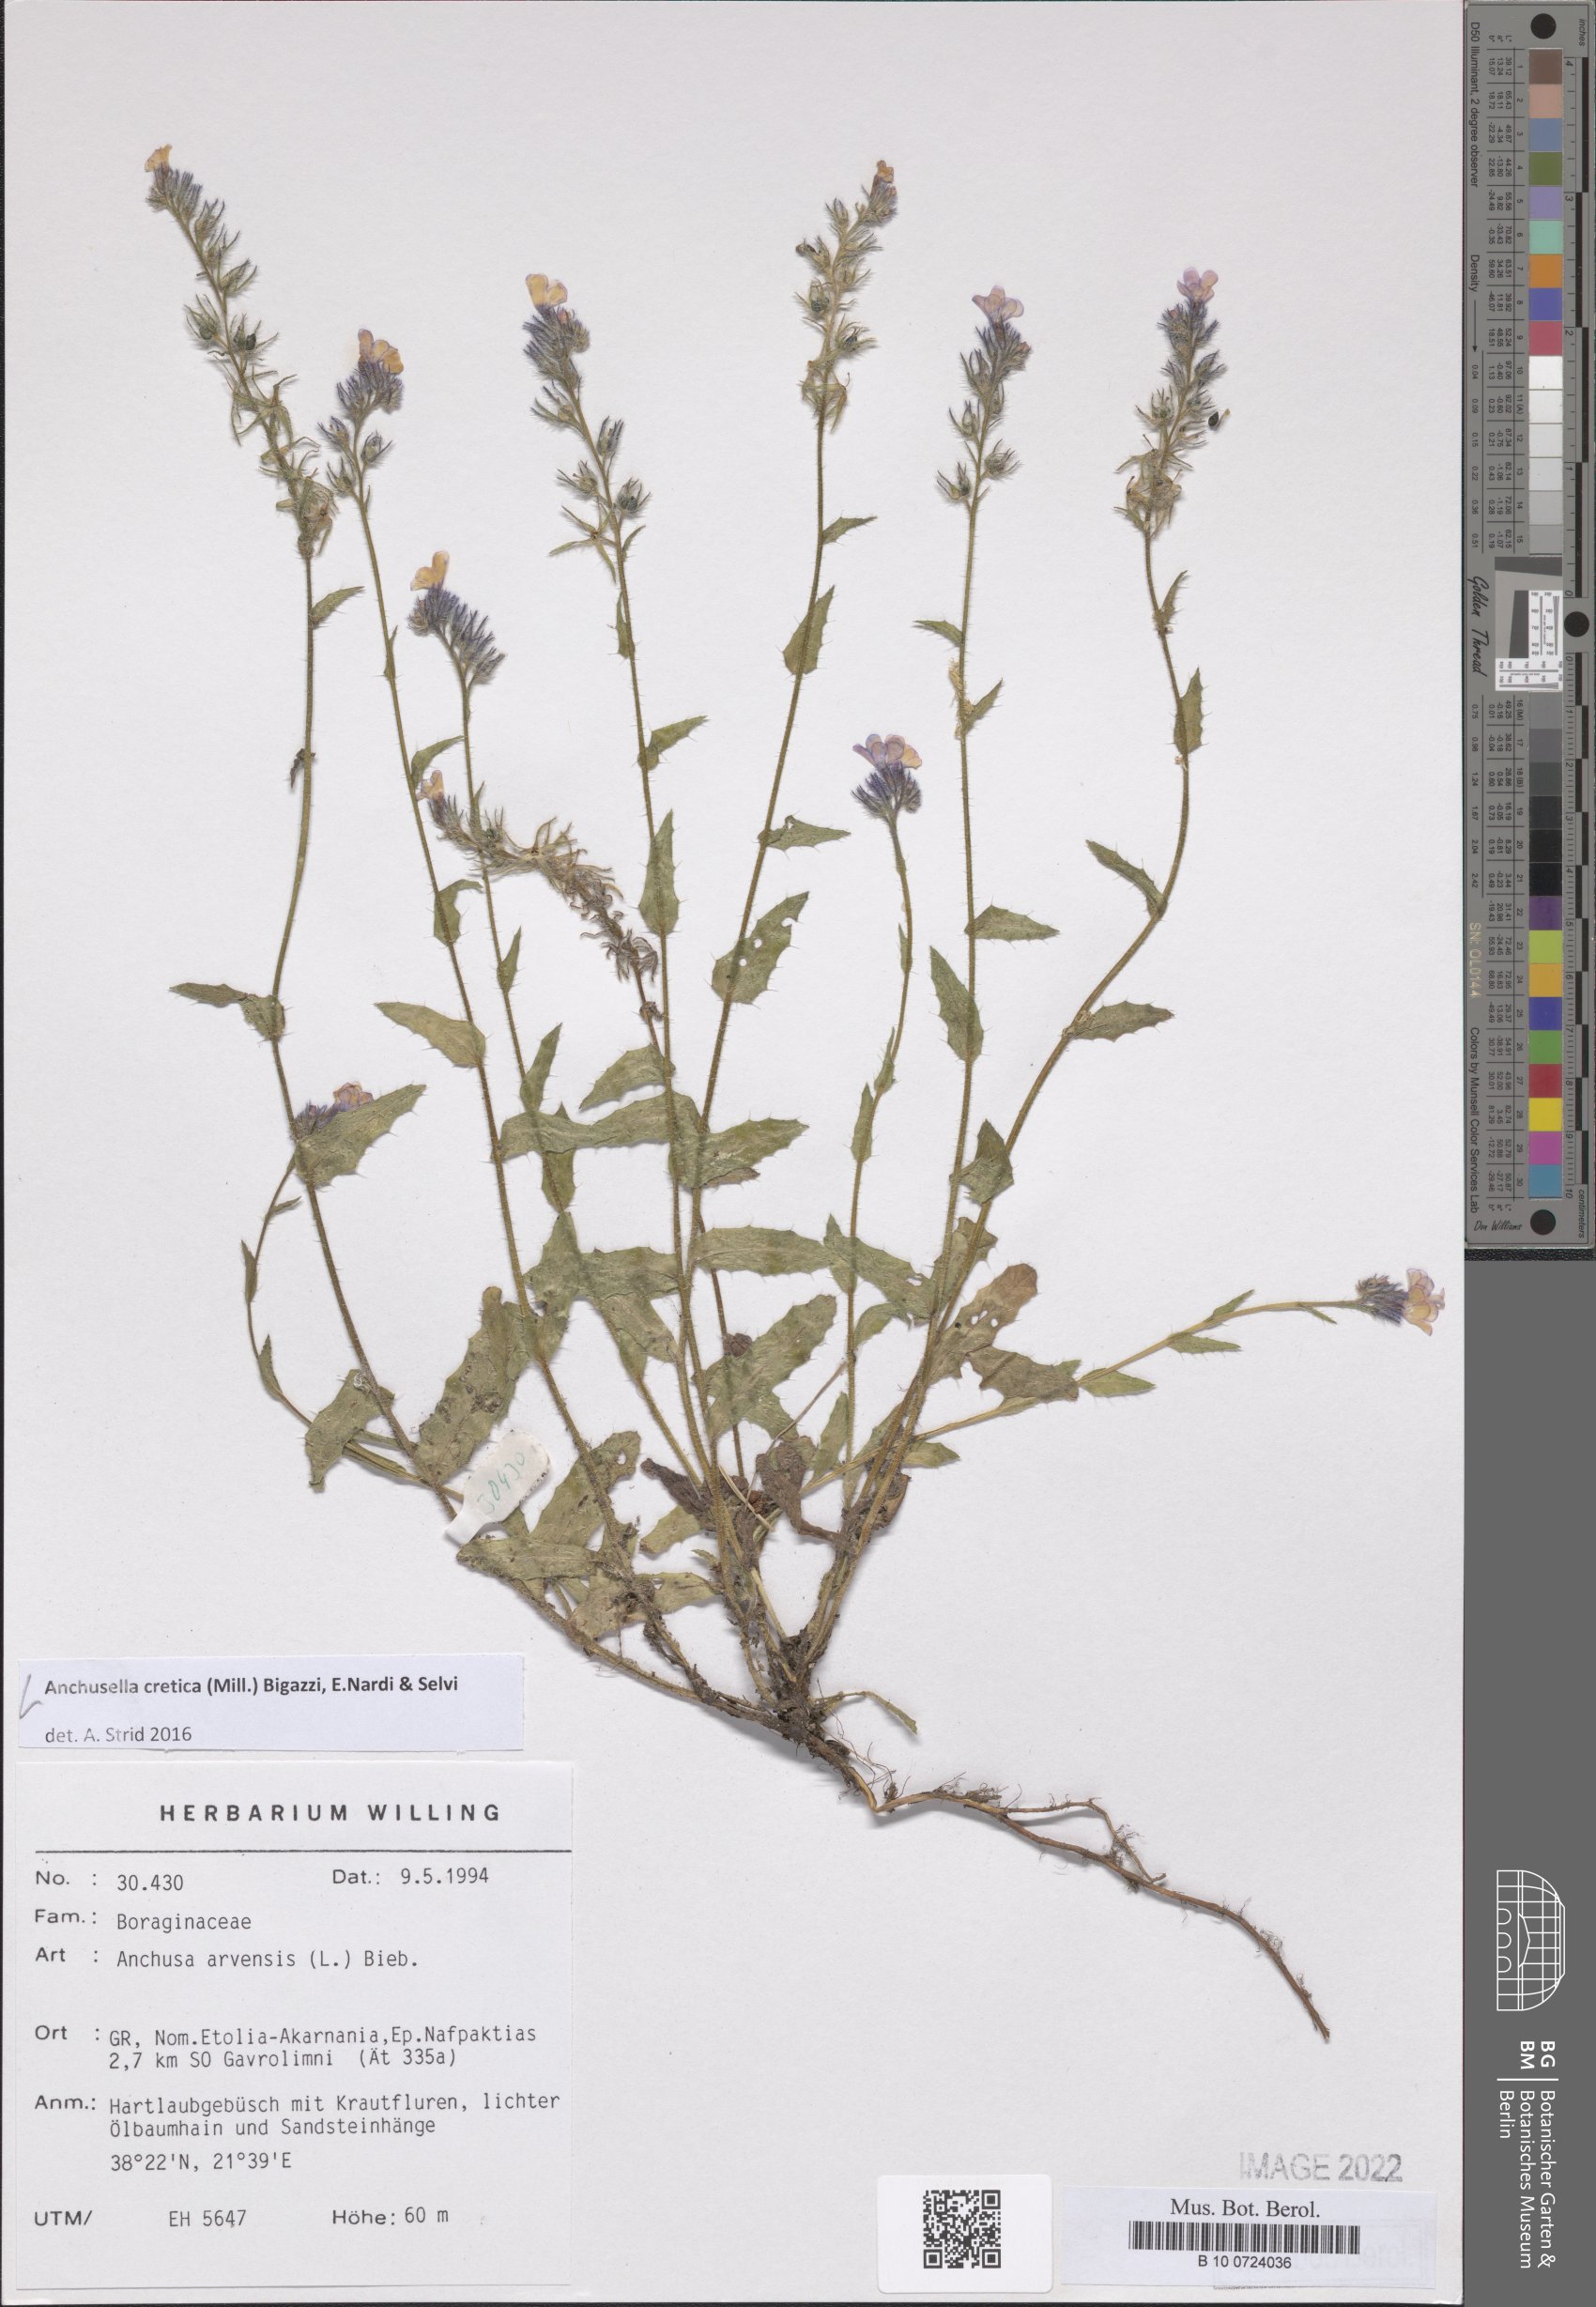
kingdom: Plantae
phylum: Tracheophyta
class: Magnoliopsida
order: Boraginales
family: Boraginaceae
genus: Anchusella
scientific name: Anchusella cretica
